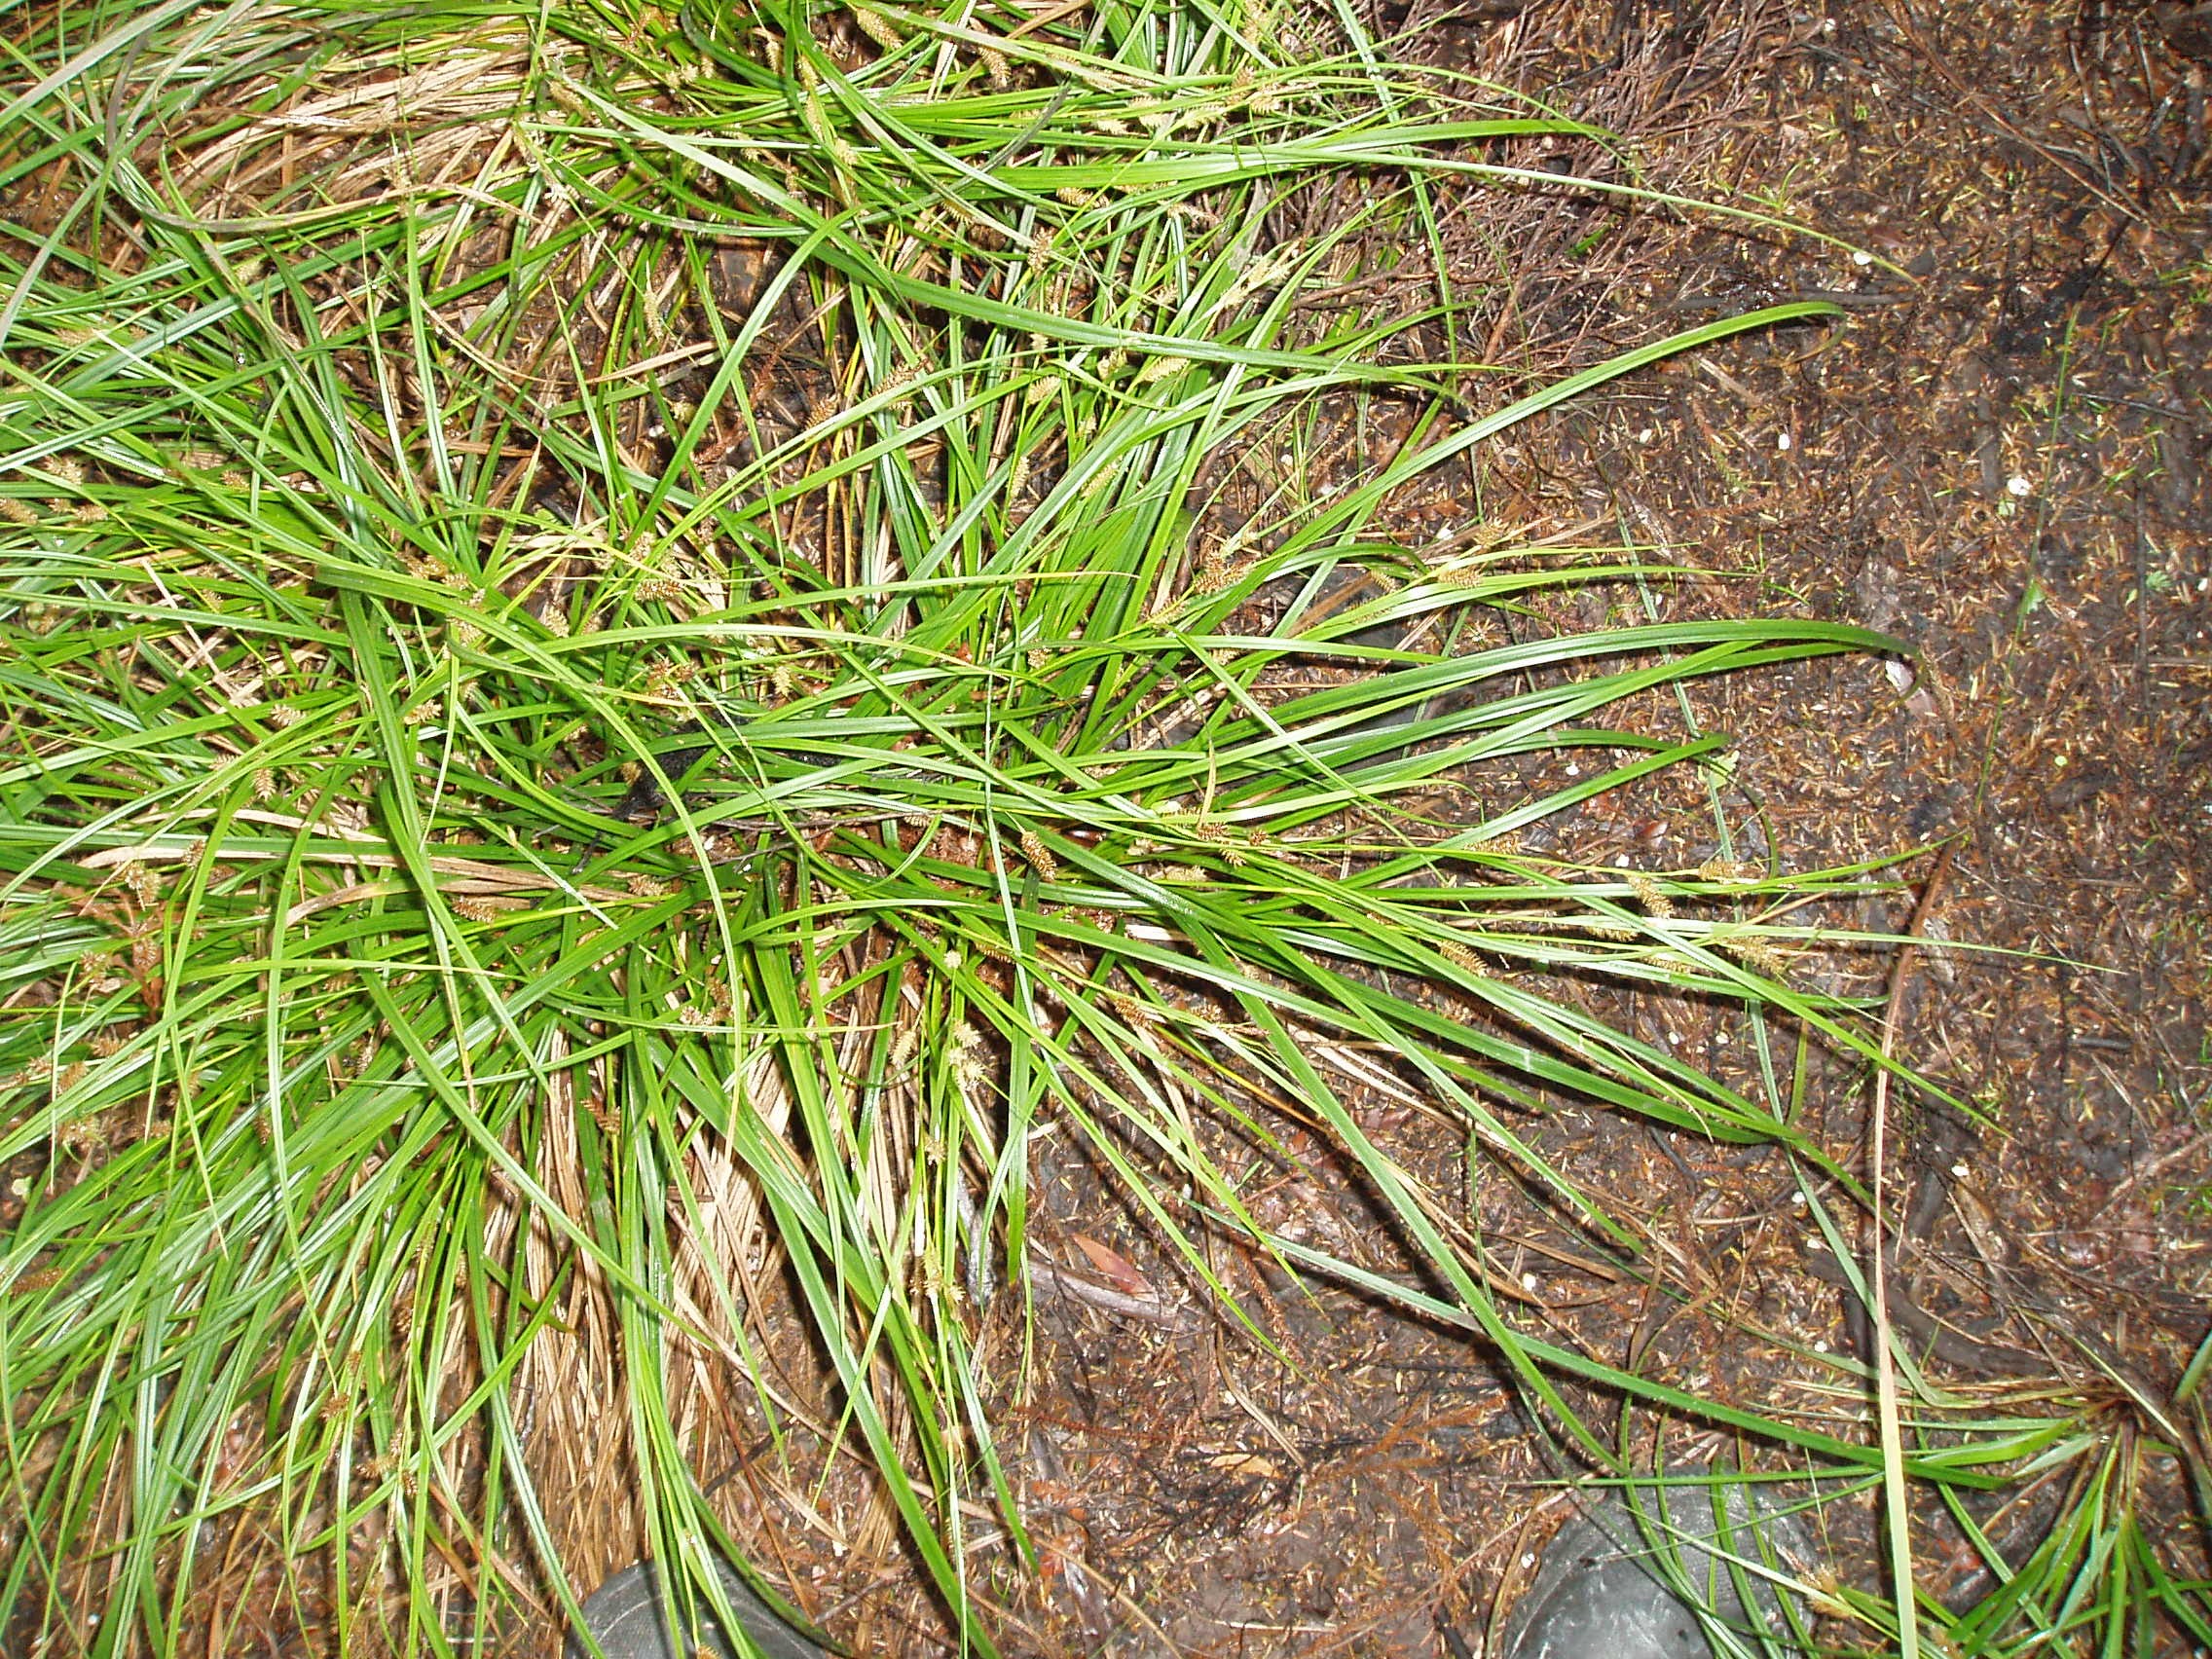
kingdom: Plantae
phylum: Tracheophyta
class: Liliopsida
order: Poales
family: Cyperaceae
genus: Carex
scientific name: Carex dissita
